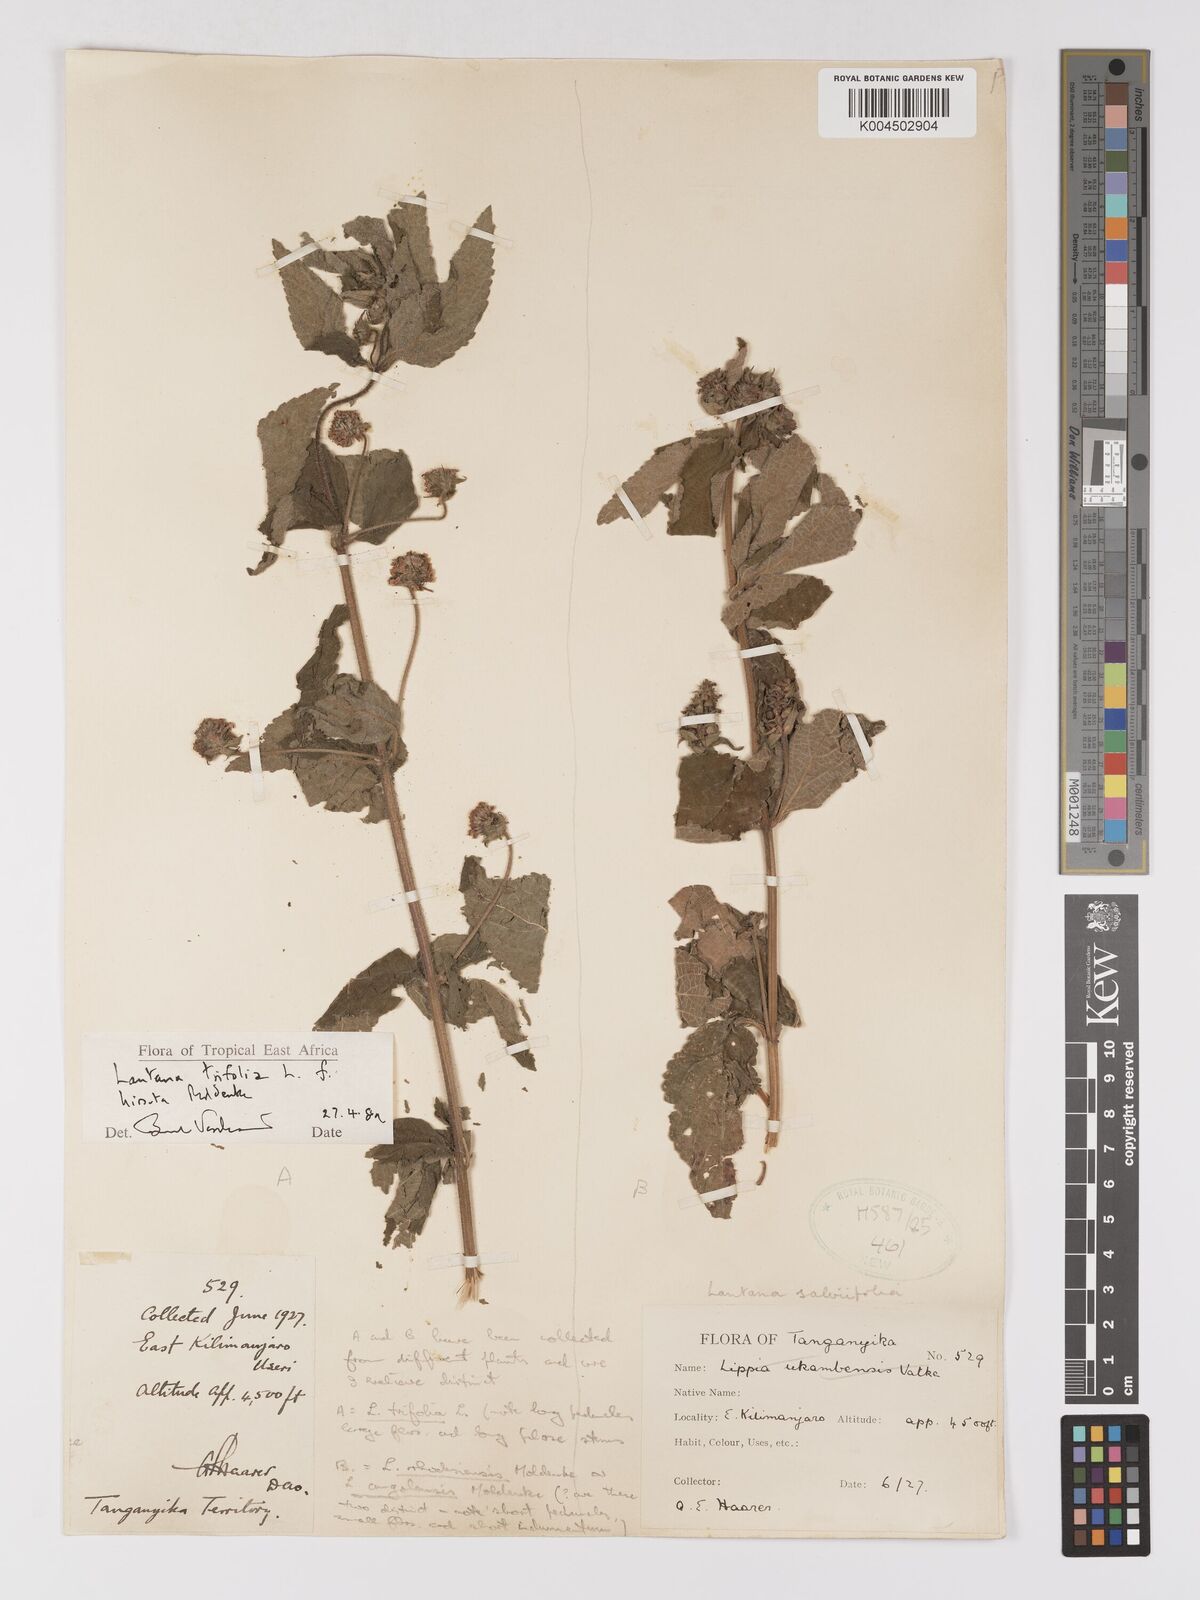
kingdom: Plantae
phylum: Tracheophyta
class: Magnoliopsida
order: Lamiales
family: Verbenaceae
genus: Lantana
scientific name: Lantana trifolia
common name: Sweet-sage
